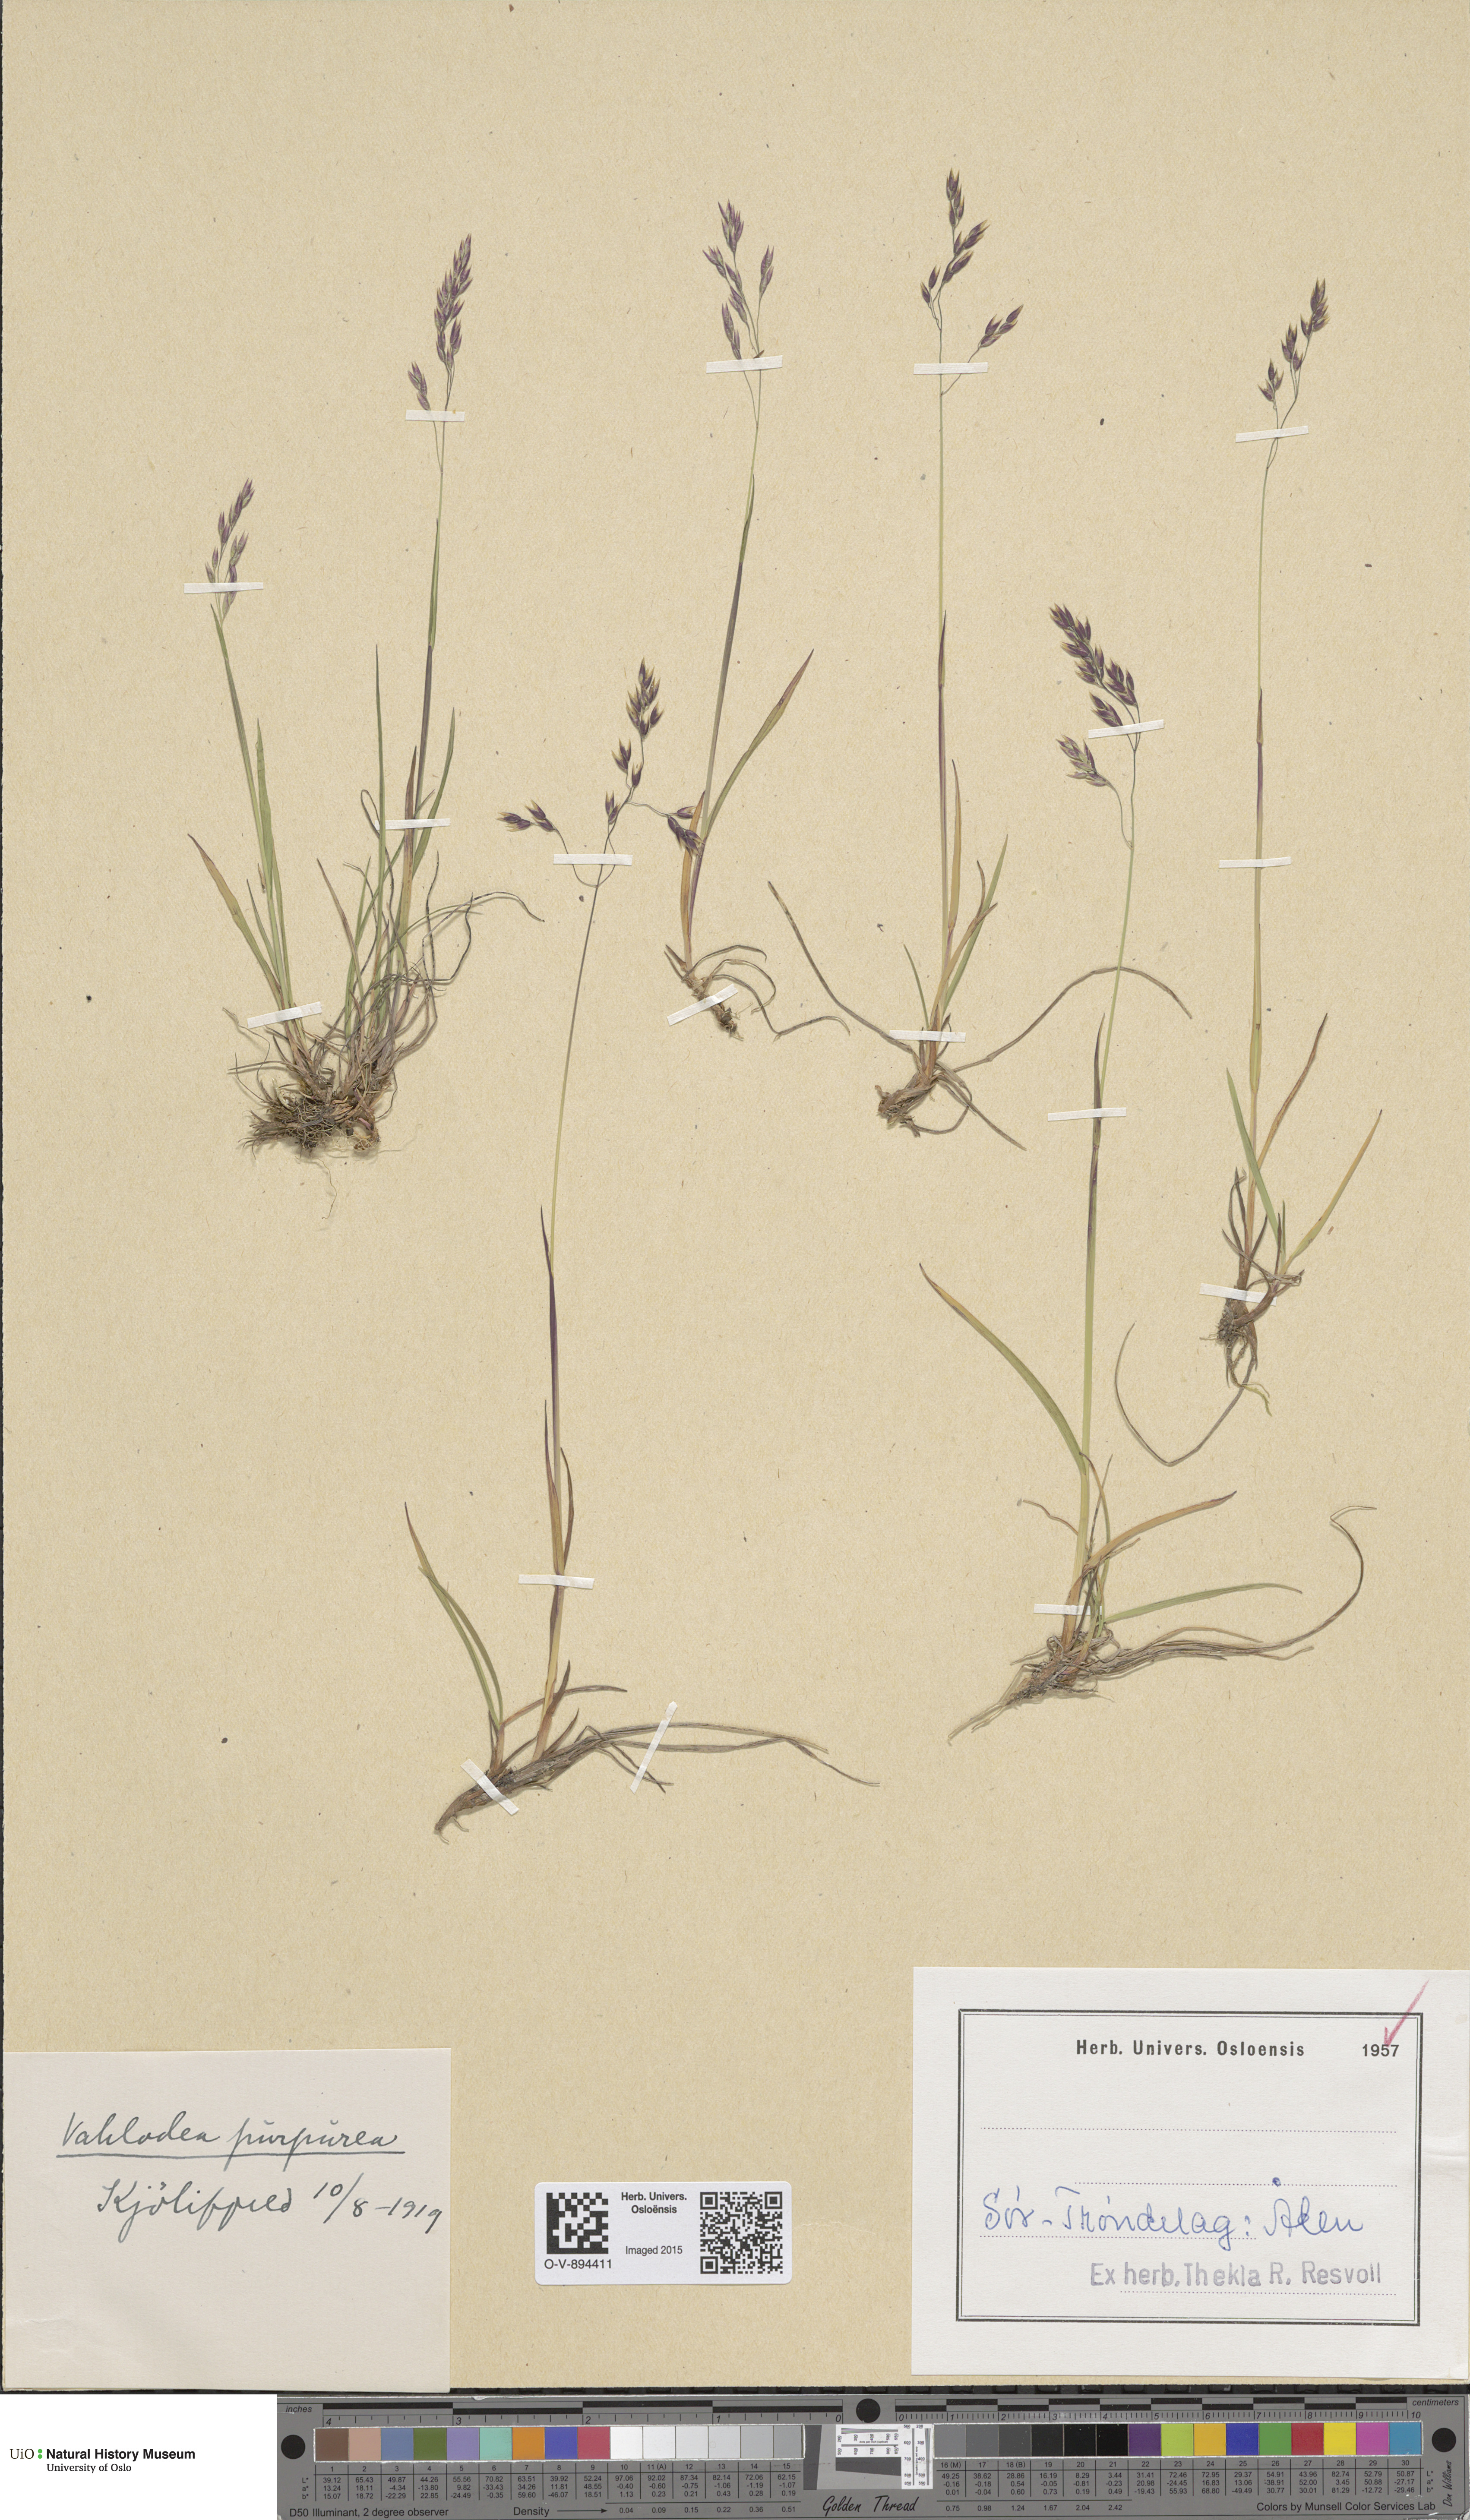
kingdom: Plantae
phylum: Tracheophyta
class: Liliopsida
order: Poales
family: Poaceae
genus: Vahlodea
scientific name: Vahlodea atropurpurea
